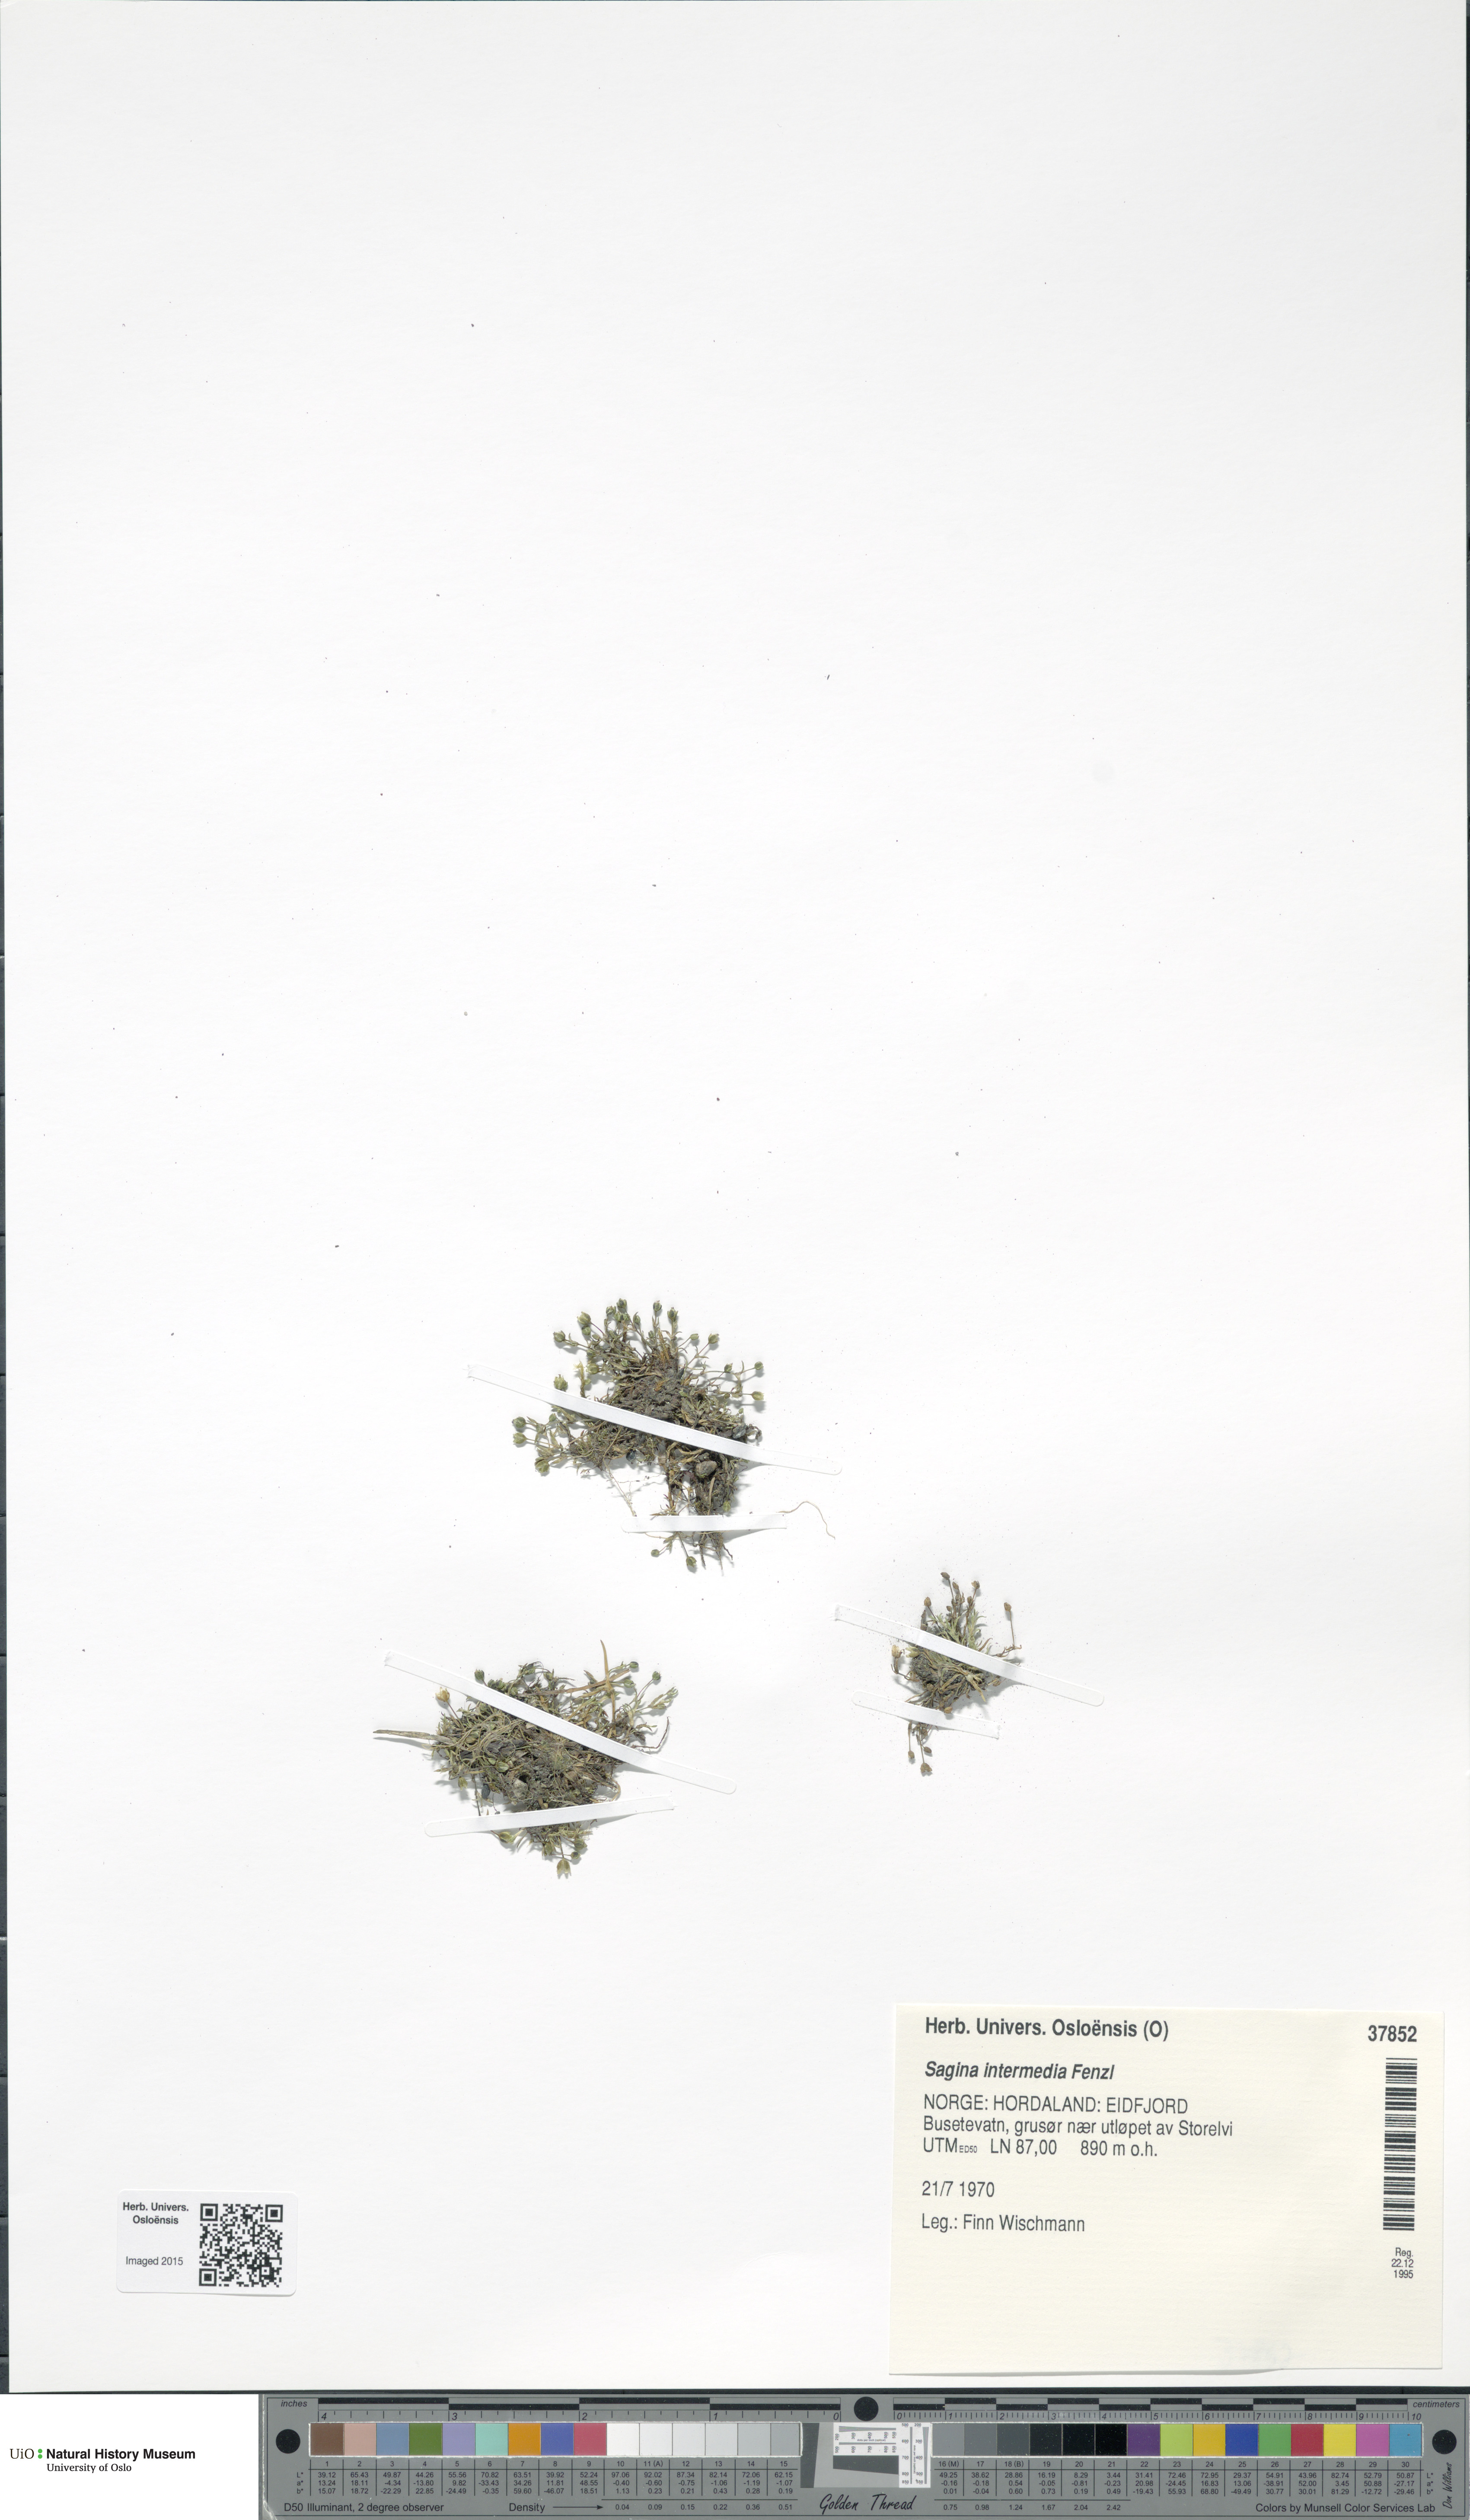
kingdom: Plantae
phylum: Tracheophyta
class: Magnoliopsida
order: Caryophyllales
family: Caryophyllaceae
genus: Sagina
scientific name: Sagina nivalis
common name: Snow pearlwort
